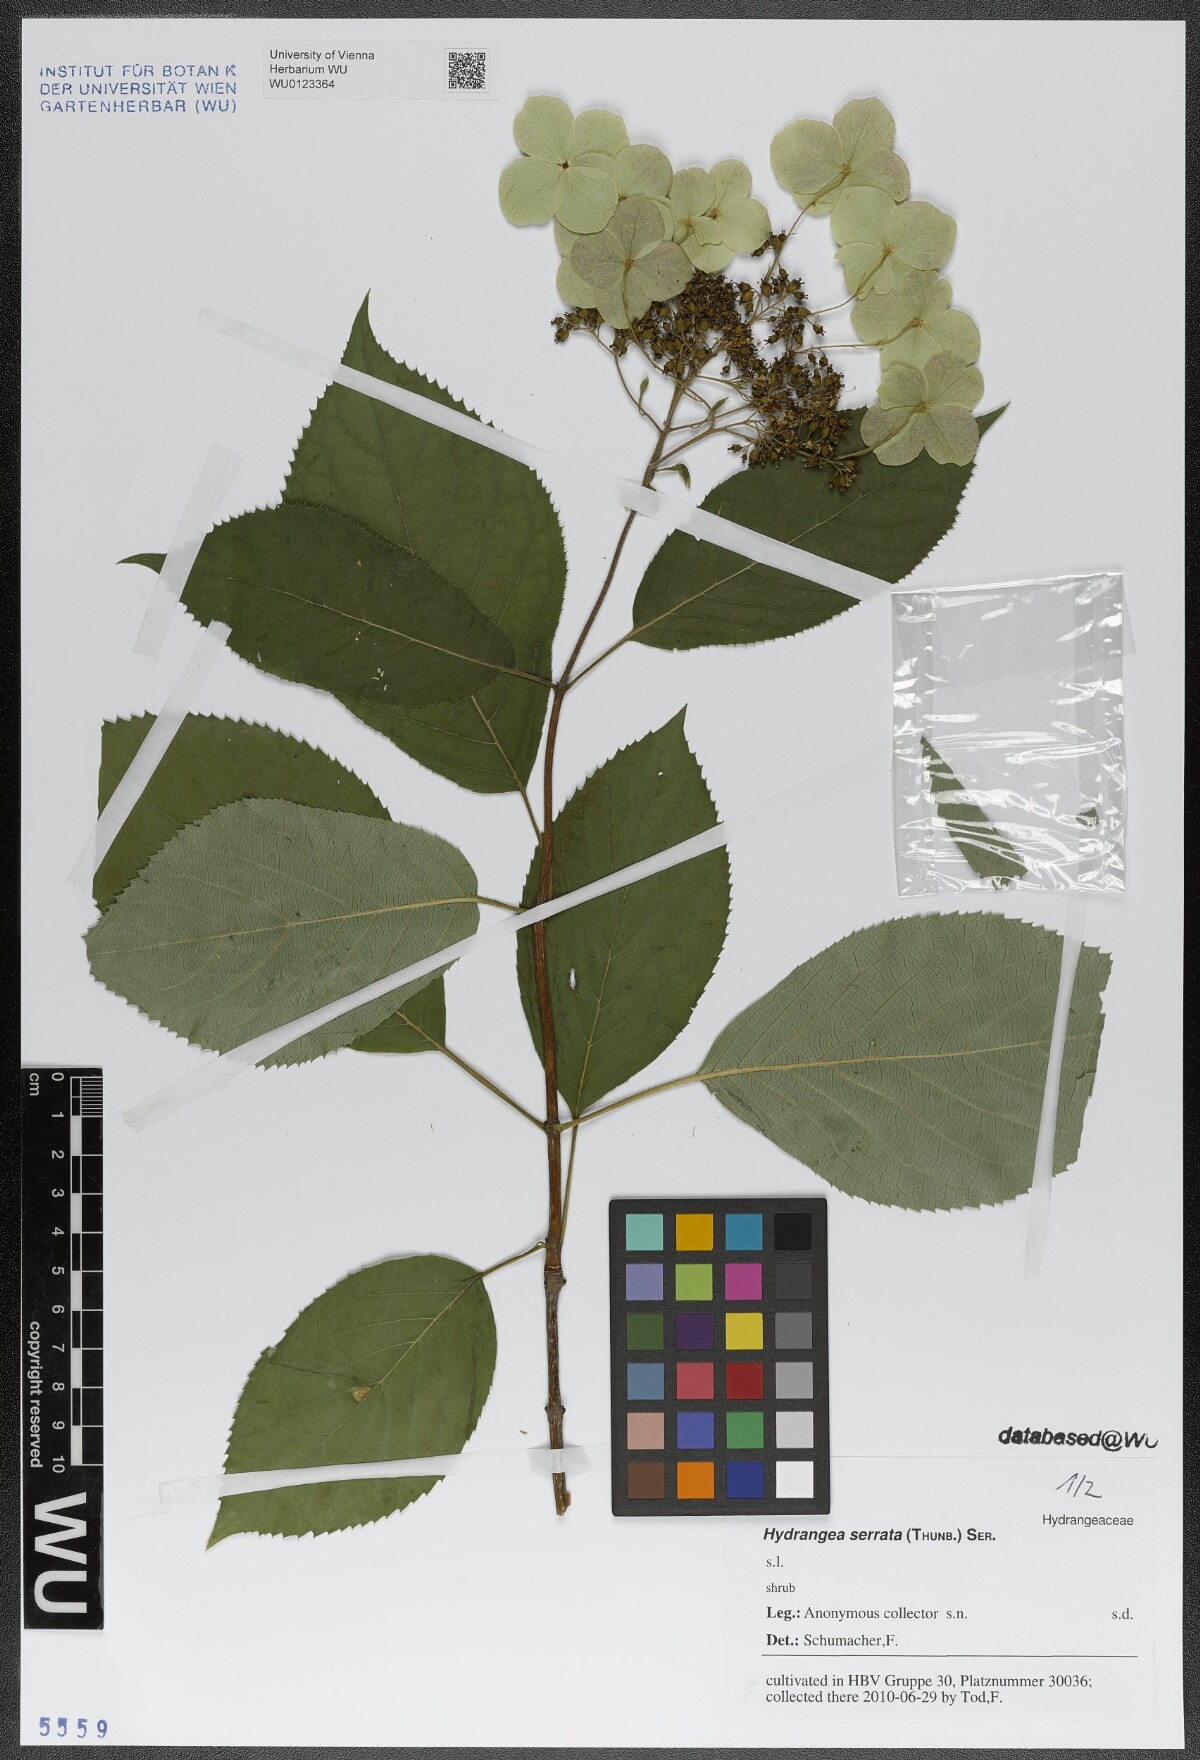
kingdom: Plantae
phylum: Tracheophyta
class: Magnoliopsida
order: Cornales
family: Hydrangeaceae
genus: Hydrangea
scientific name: Hydrangea serrata
